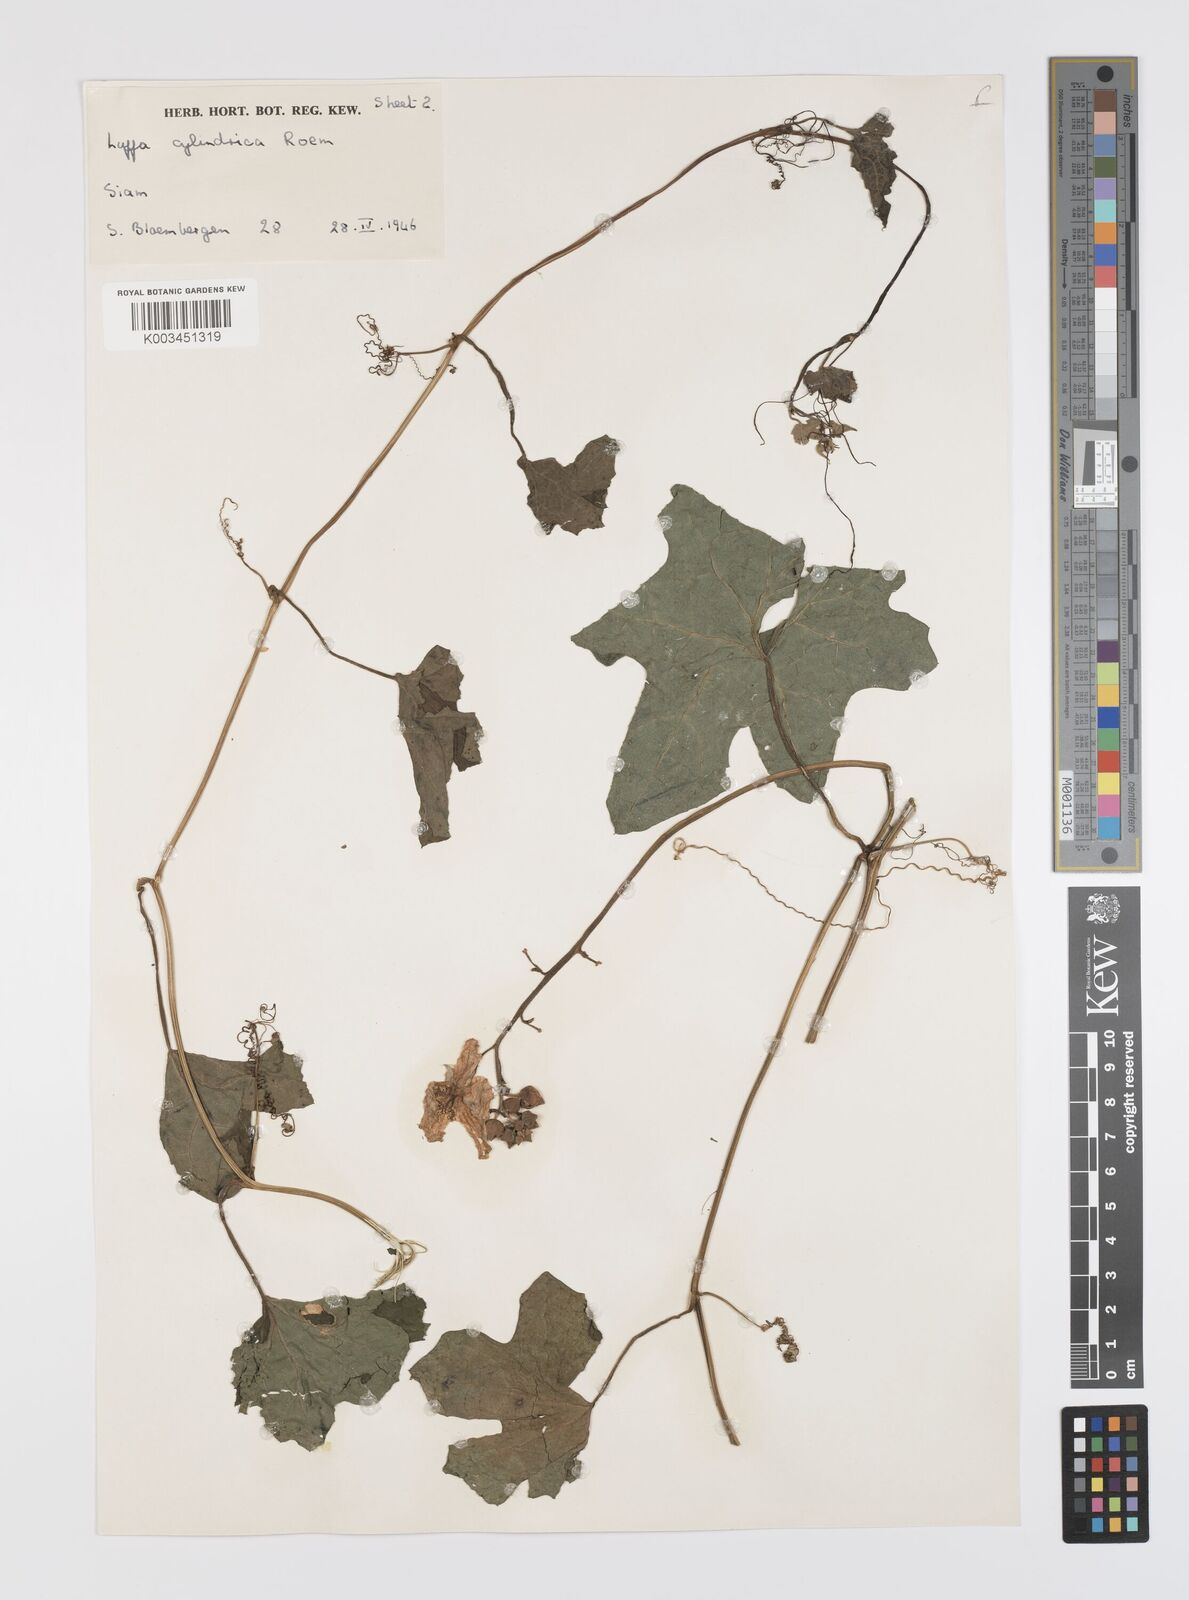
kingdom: Plantae
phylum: Tracheophyta
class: Magnoliopsida
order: Cucurbitales
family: Cucurbitaceae
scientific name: Cucurbitaceae
